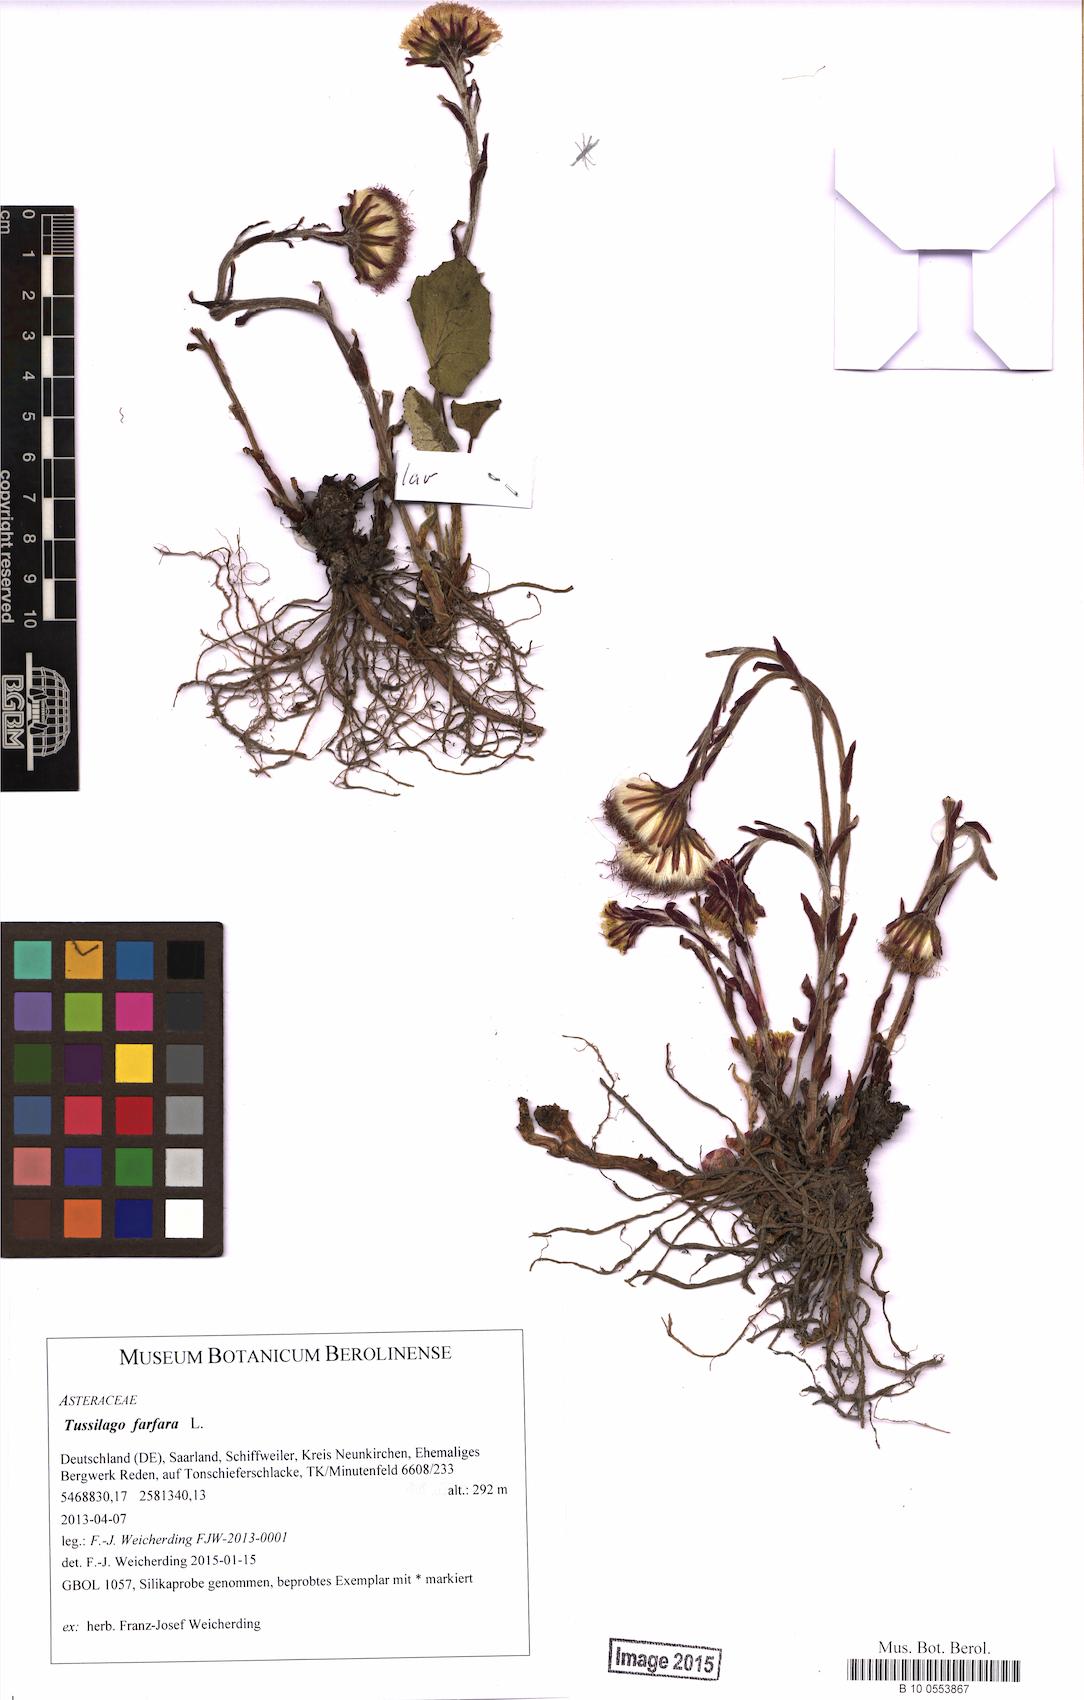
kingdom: Plantae
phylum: Tracheophyta
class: Magnoliopsida
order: Asterales
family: Asteraceae
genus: Tussilago
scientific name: Tussilago farfara
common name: Coltsfoot
